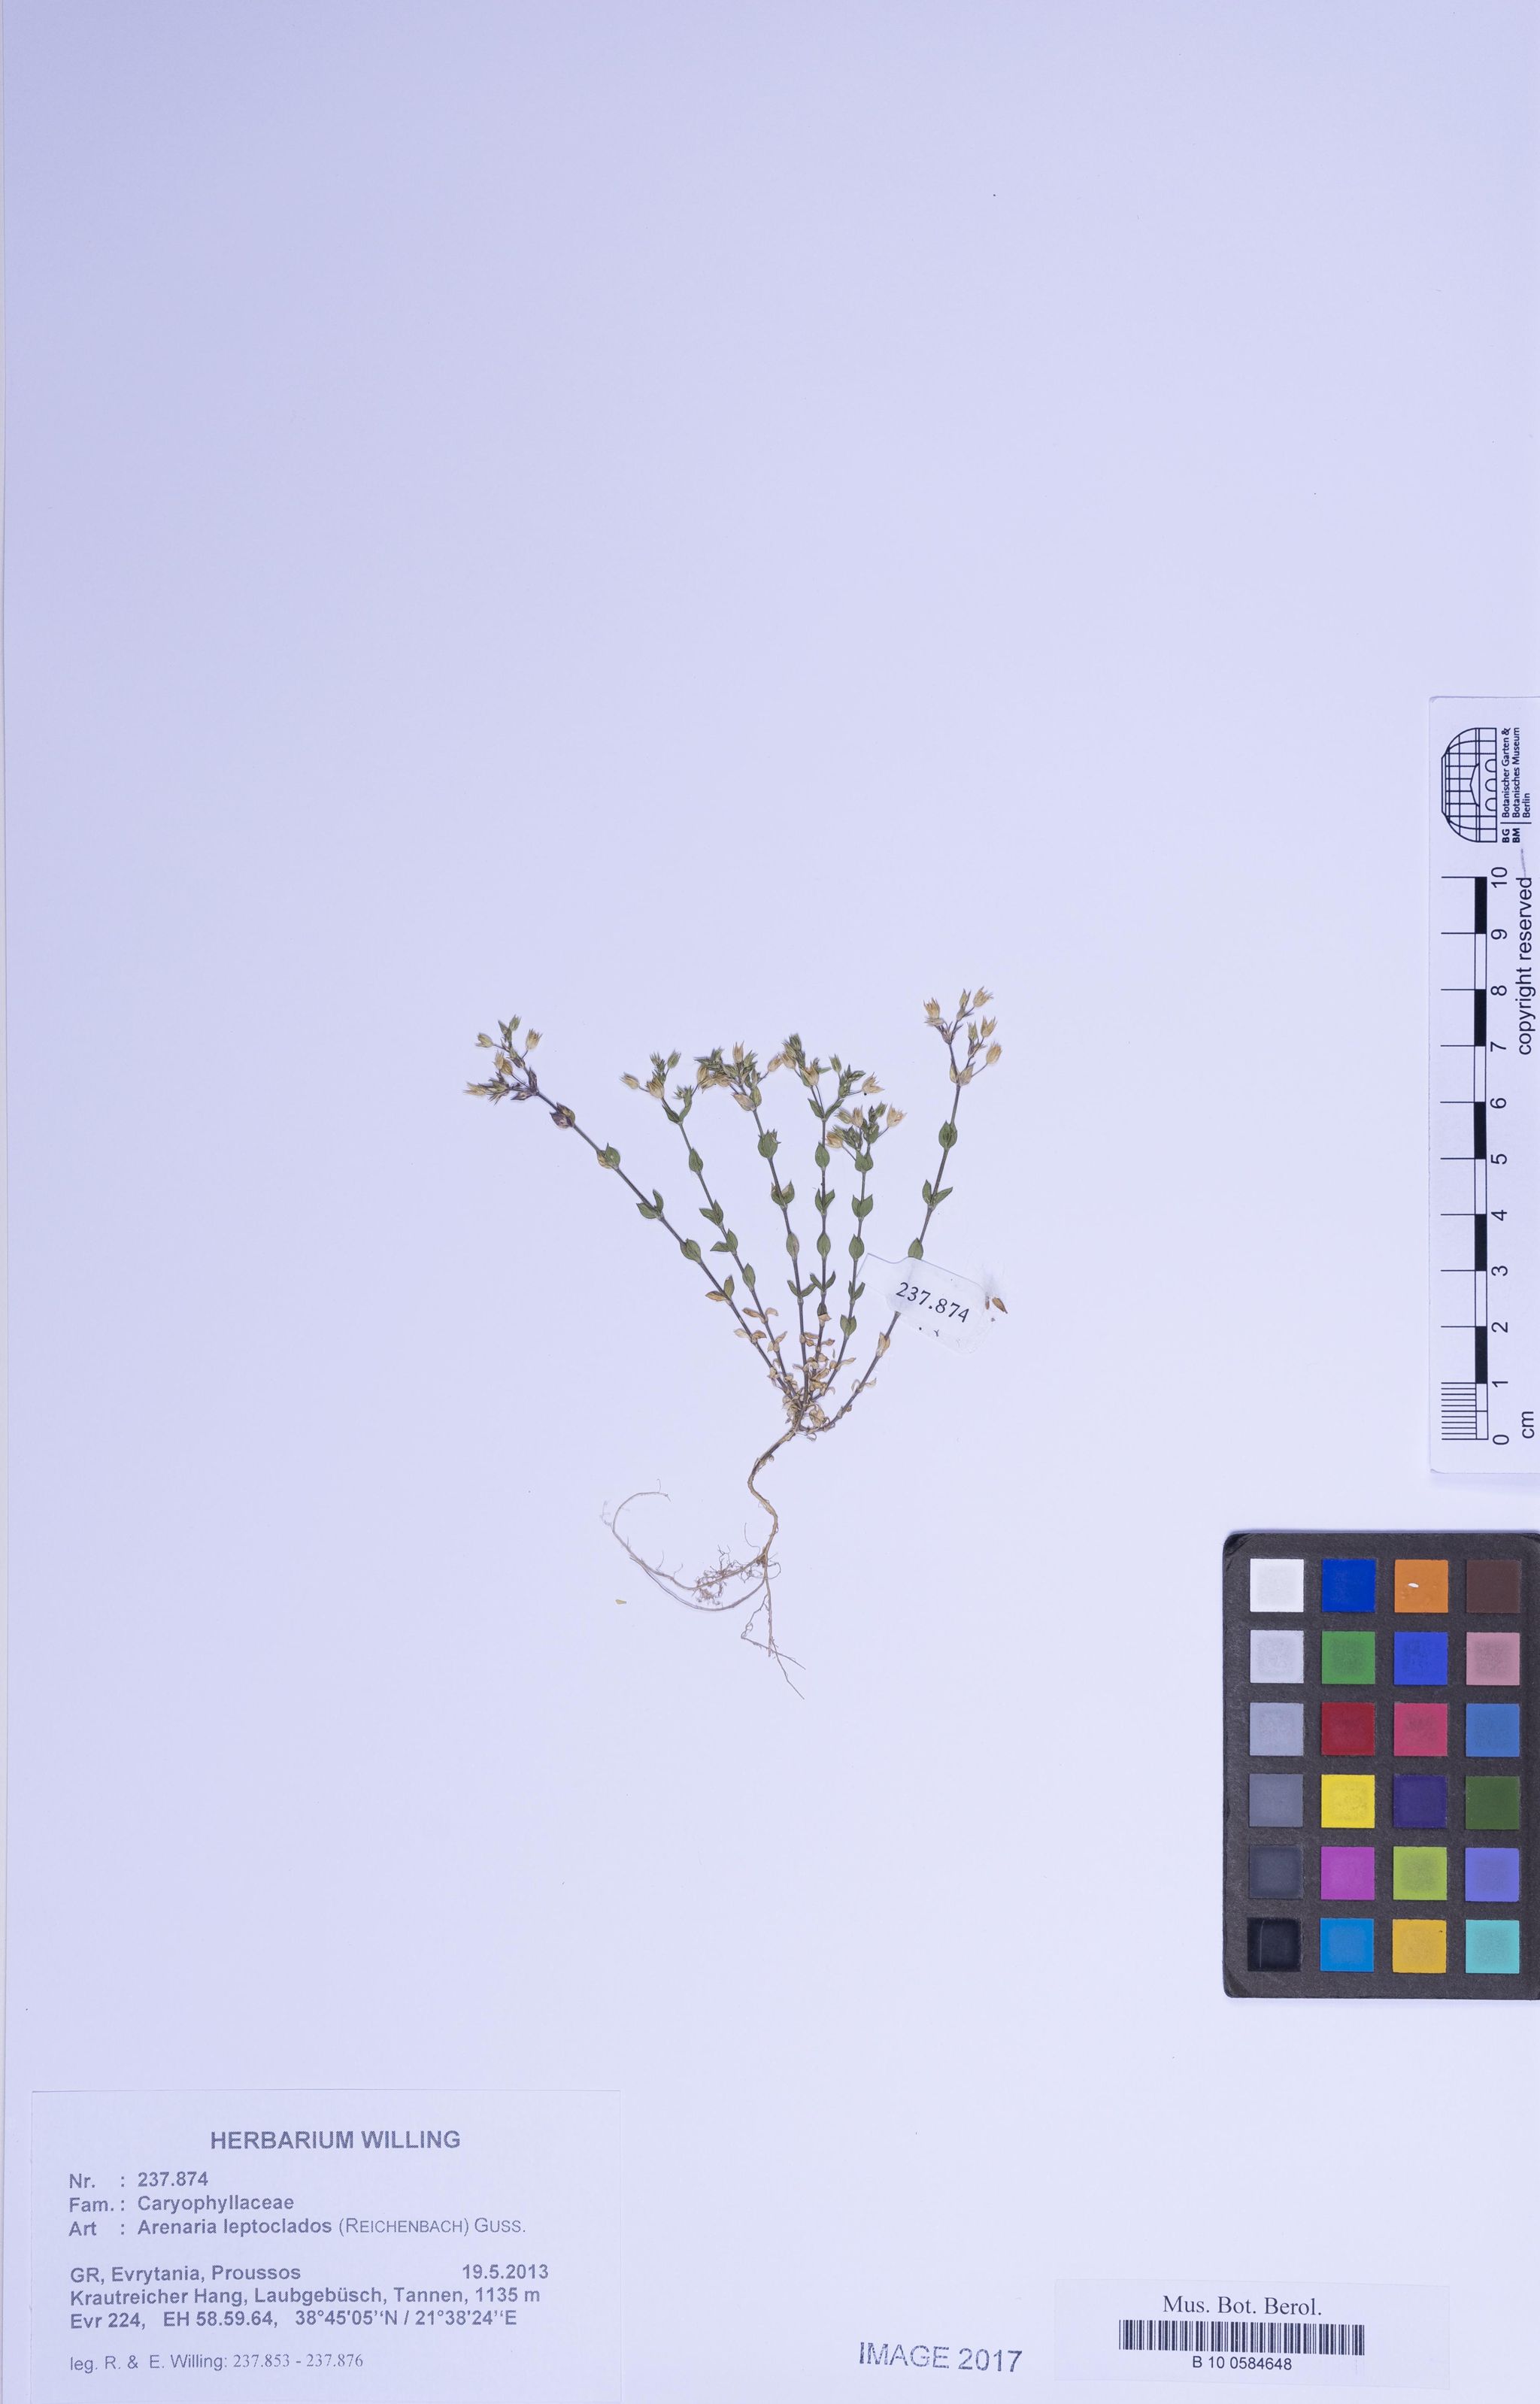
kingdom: Plantae
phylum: Tracheophyta
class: Magnoliopsida
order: Caryophyllales
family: Caryophyllaceae
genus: Arenaria
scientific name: Arenaria leptoclados
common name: Thyme-leaved sandwort
